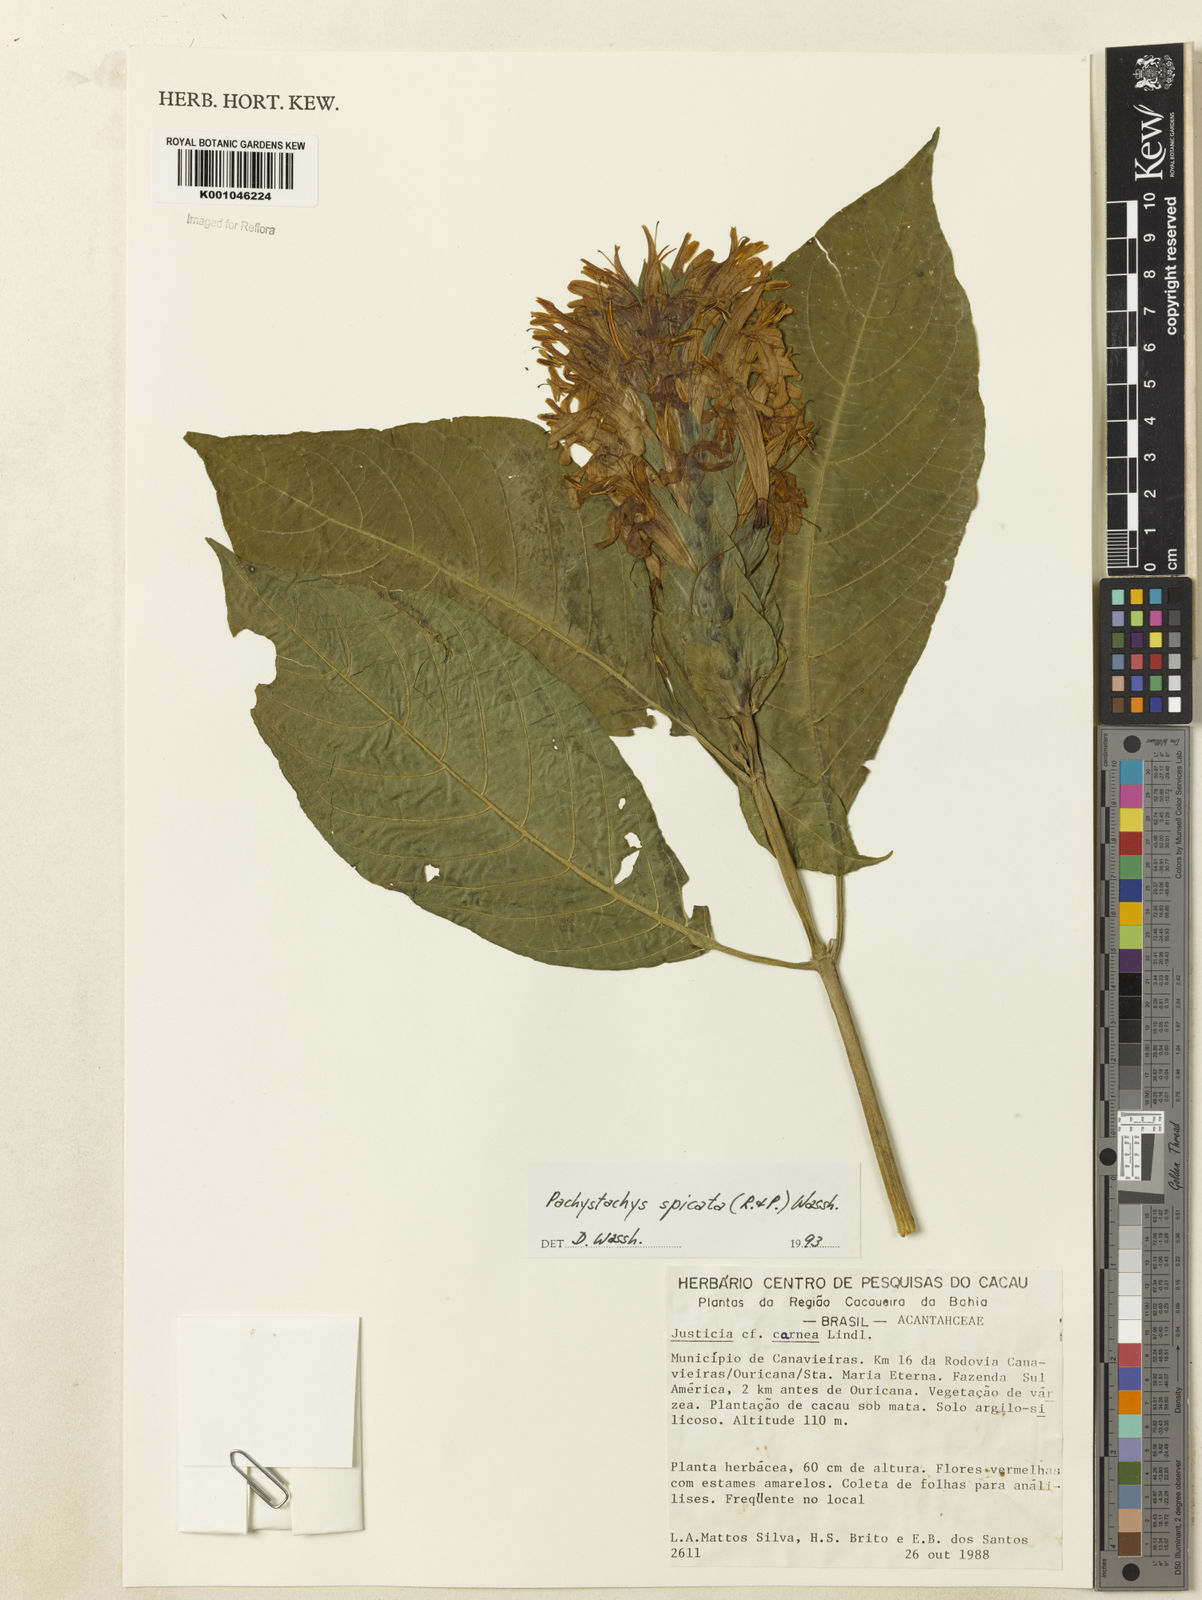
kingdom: Plantae
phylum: Tracheophyta
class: Magnoliopsida
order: Lamiales
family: Acanthaceae
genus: Pachystachys
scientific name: Pachystachys spicata
